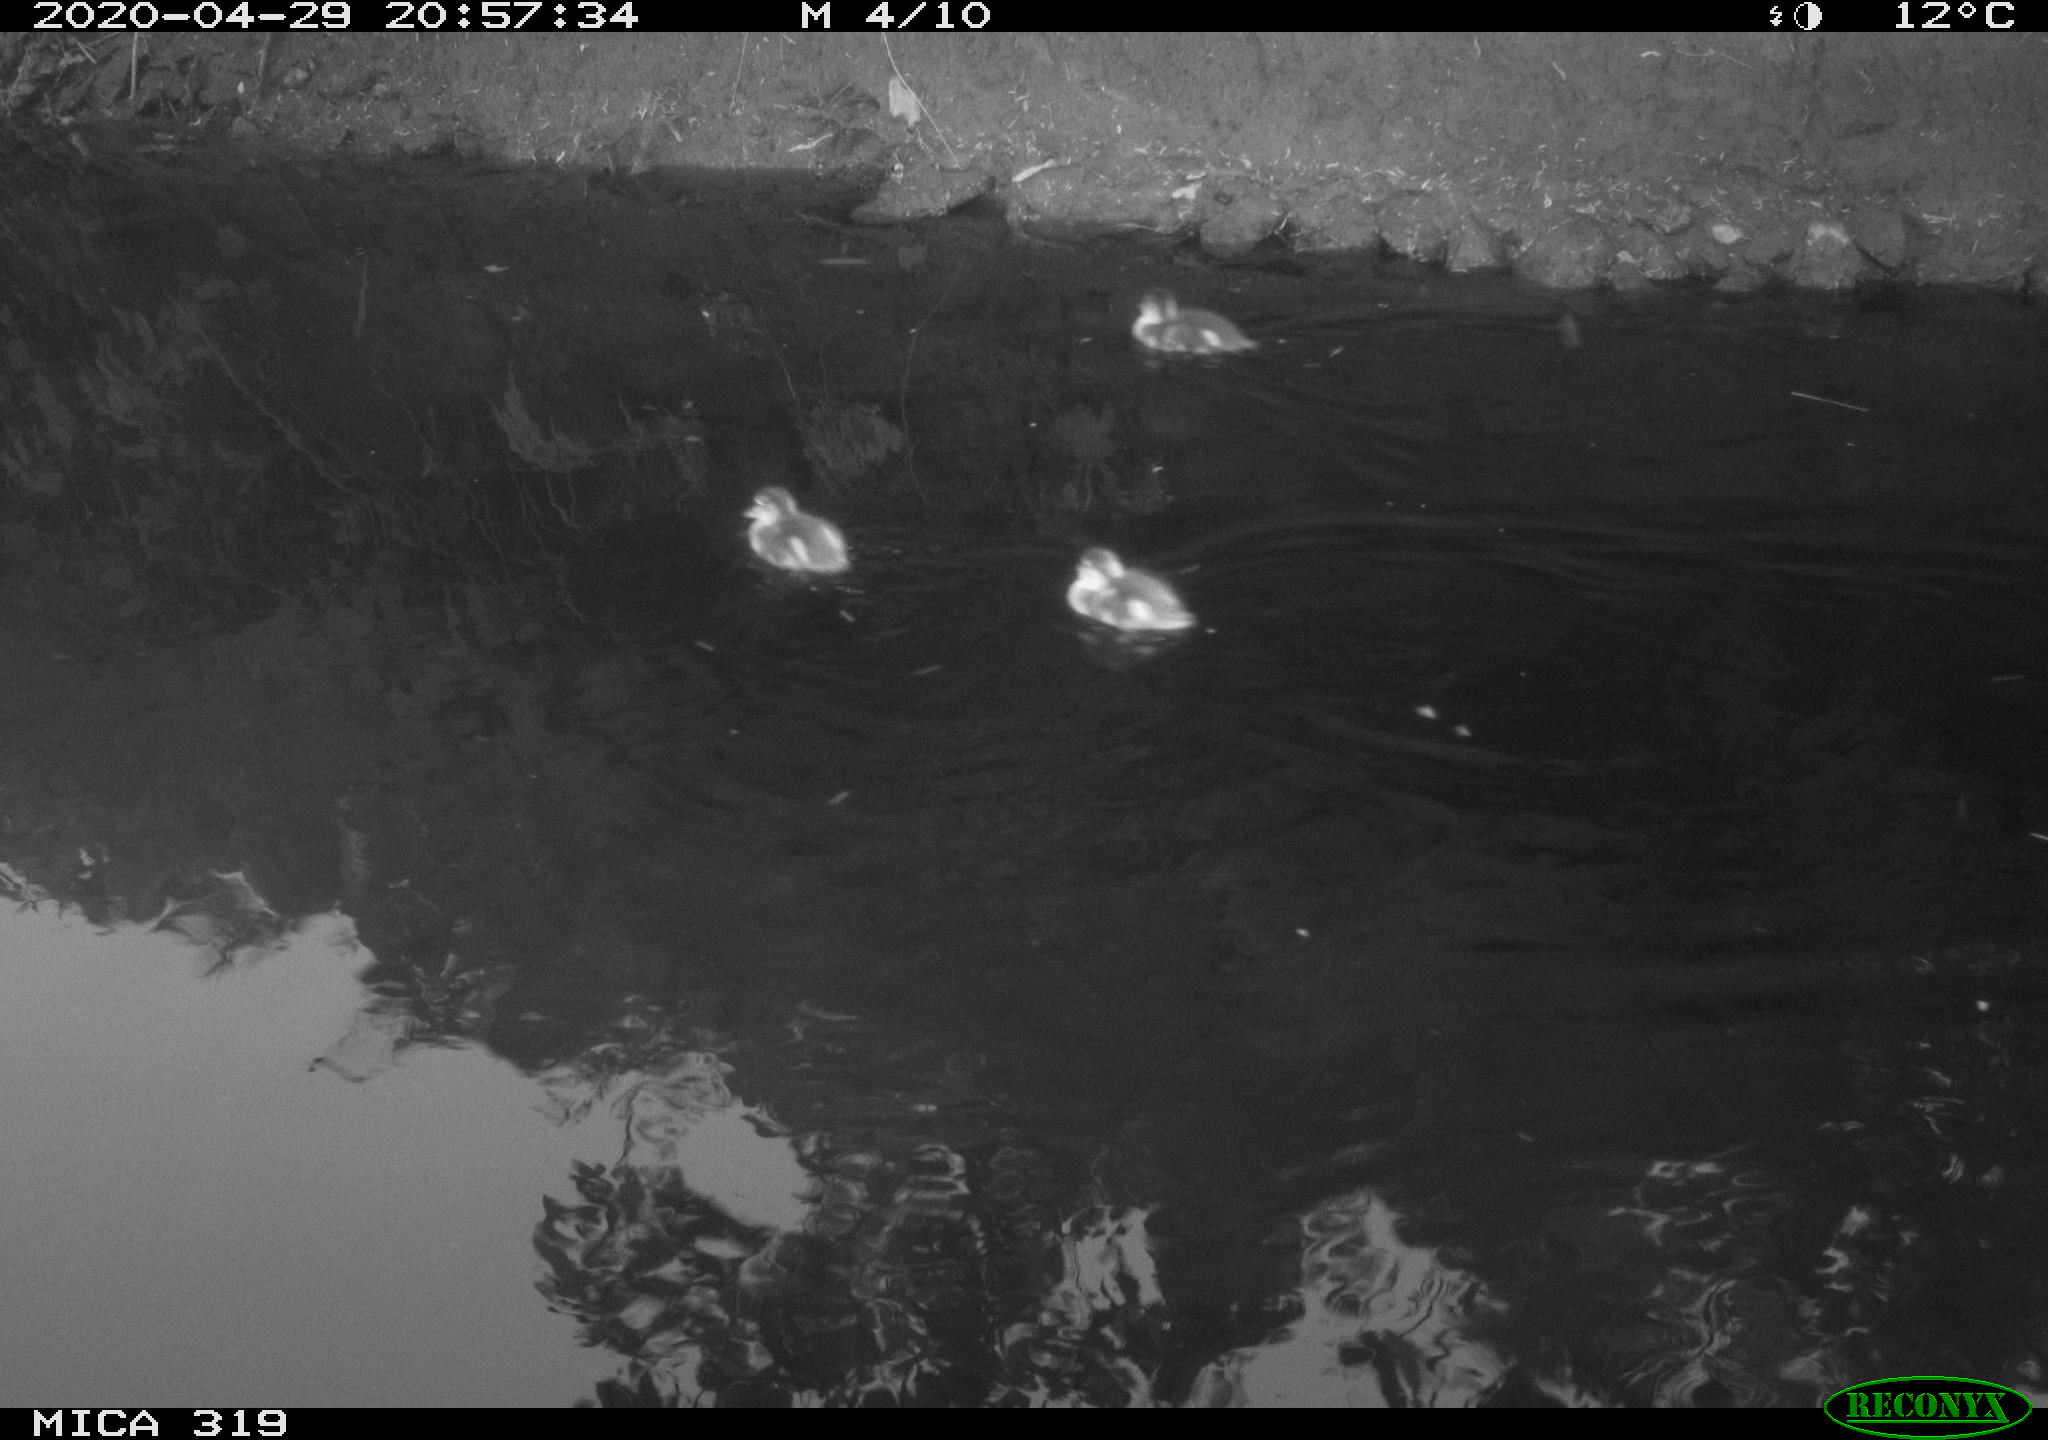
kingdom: Animalia
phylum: Chordata
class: Aves
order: Anseriformes
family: Anatidae
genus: Anas
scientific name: Anas platyrhynchos
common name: Mallard
